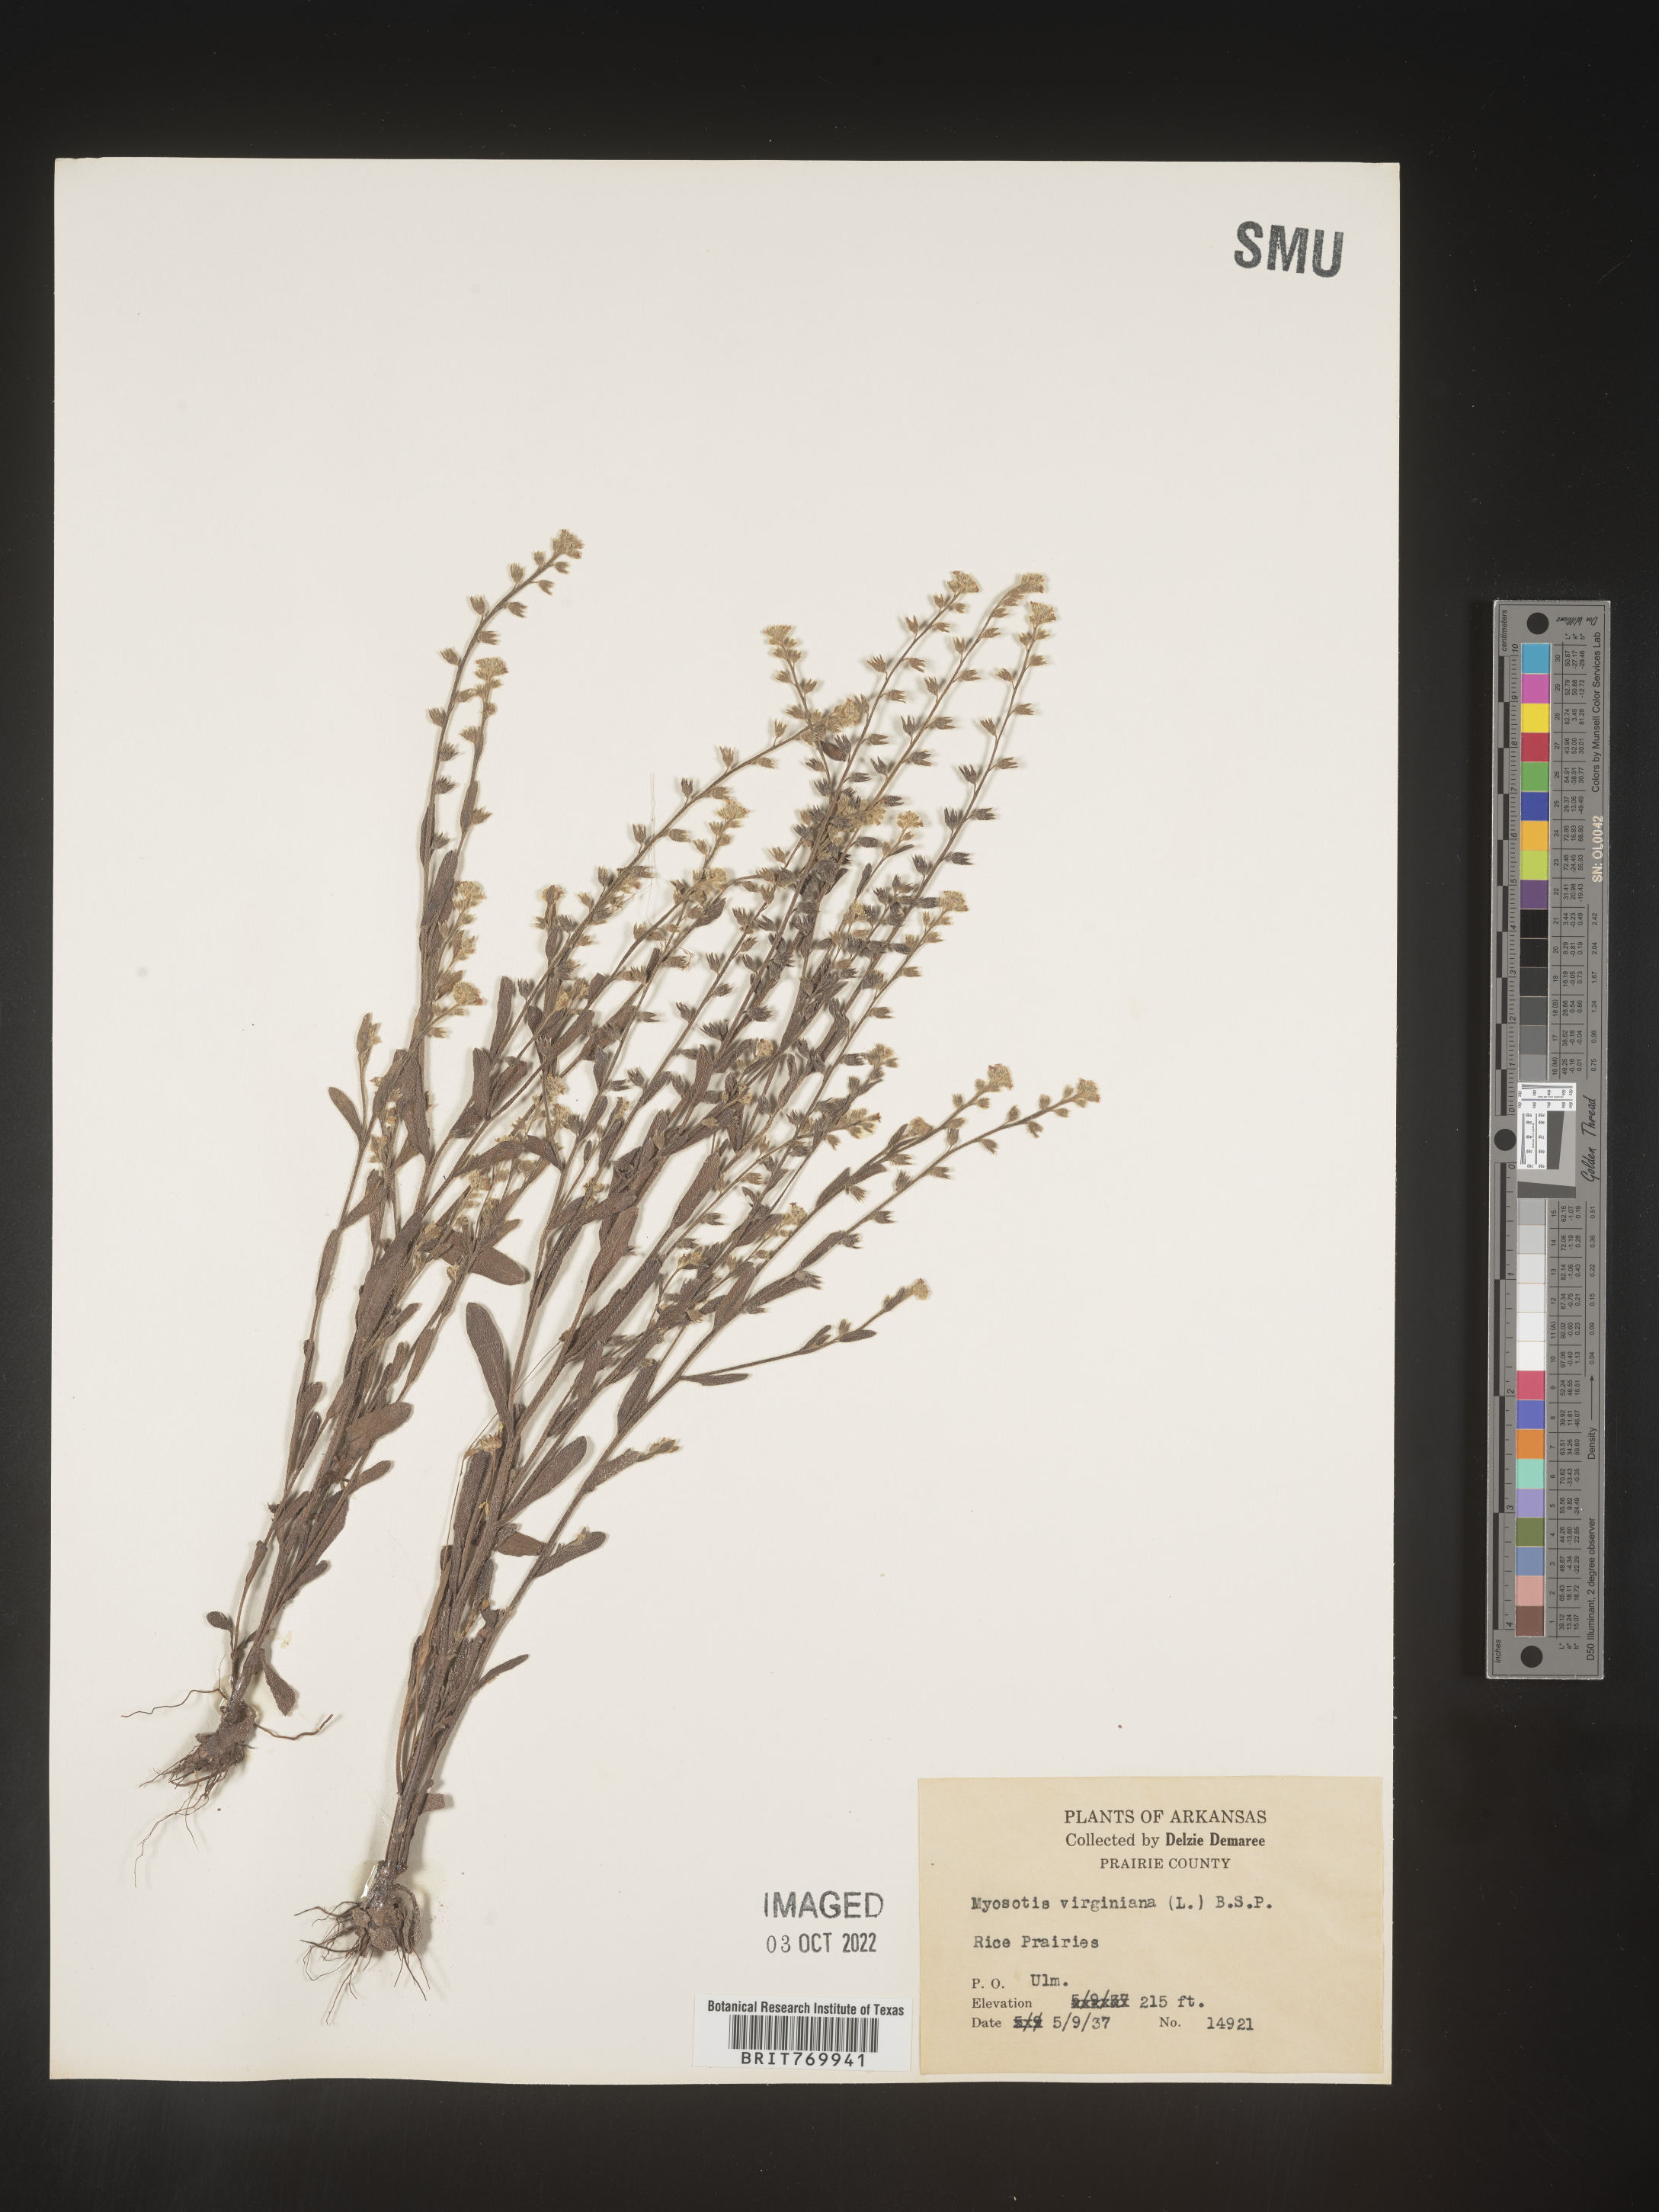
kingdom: Plantae
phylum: Tracheophyta
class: Magnoliopsida
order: Boraginales
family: Boraginaceae
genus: Myosotis
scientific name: Myosotis verna
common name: Early forget-me-not
